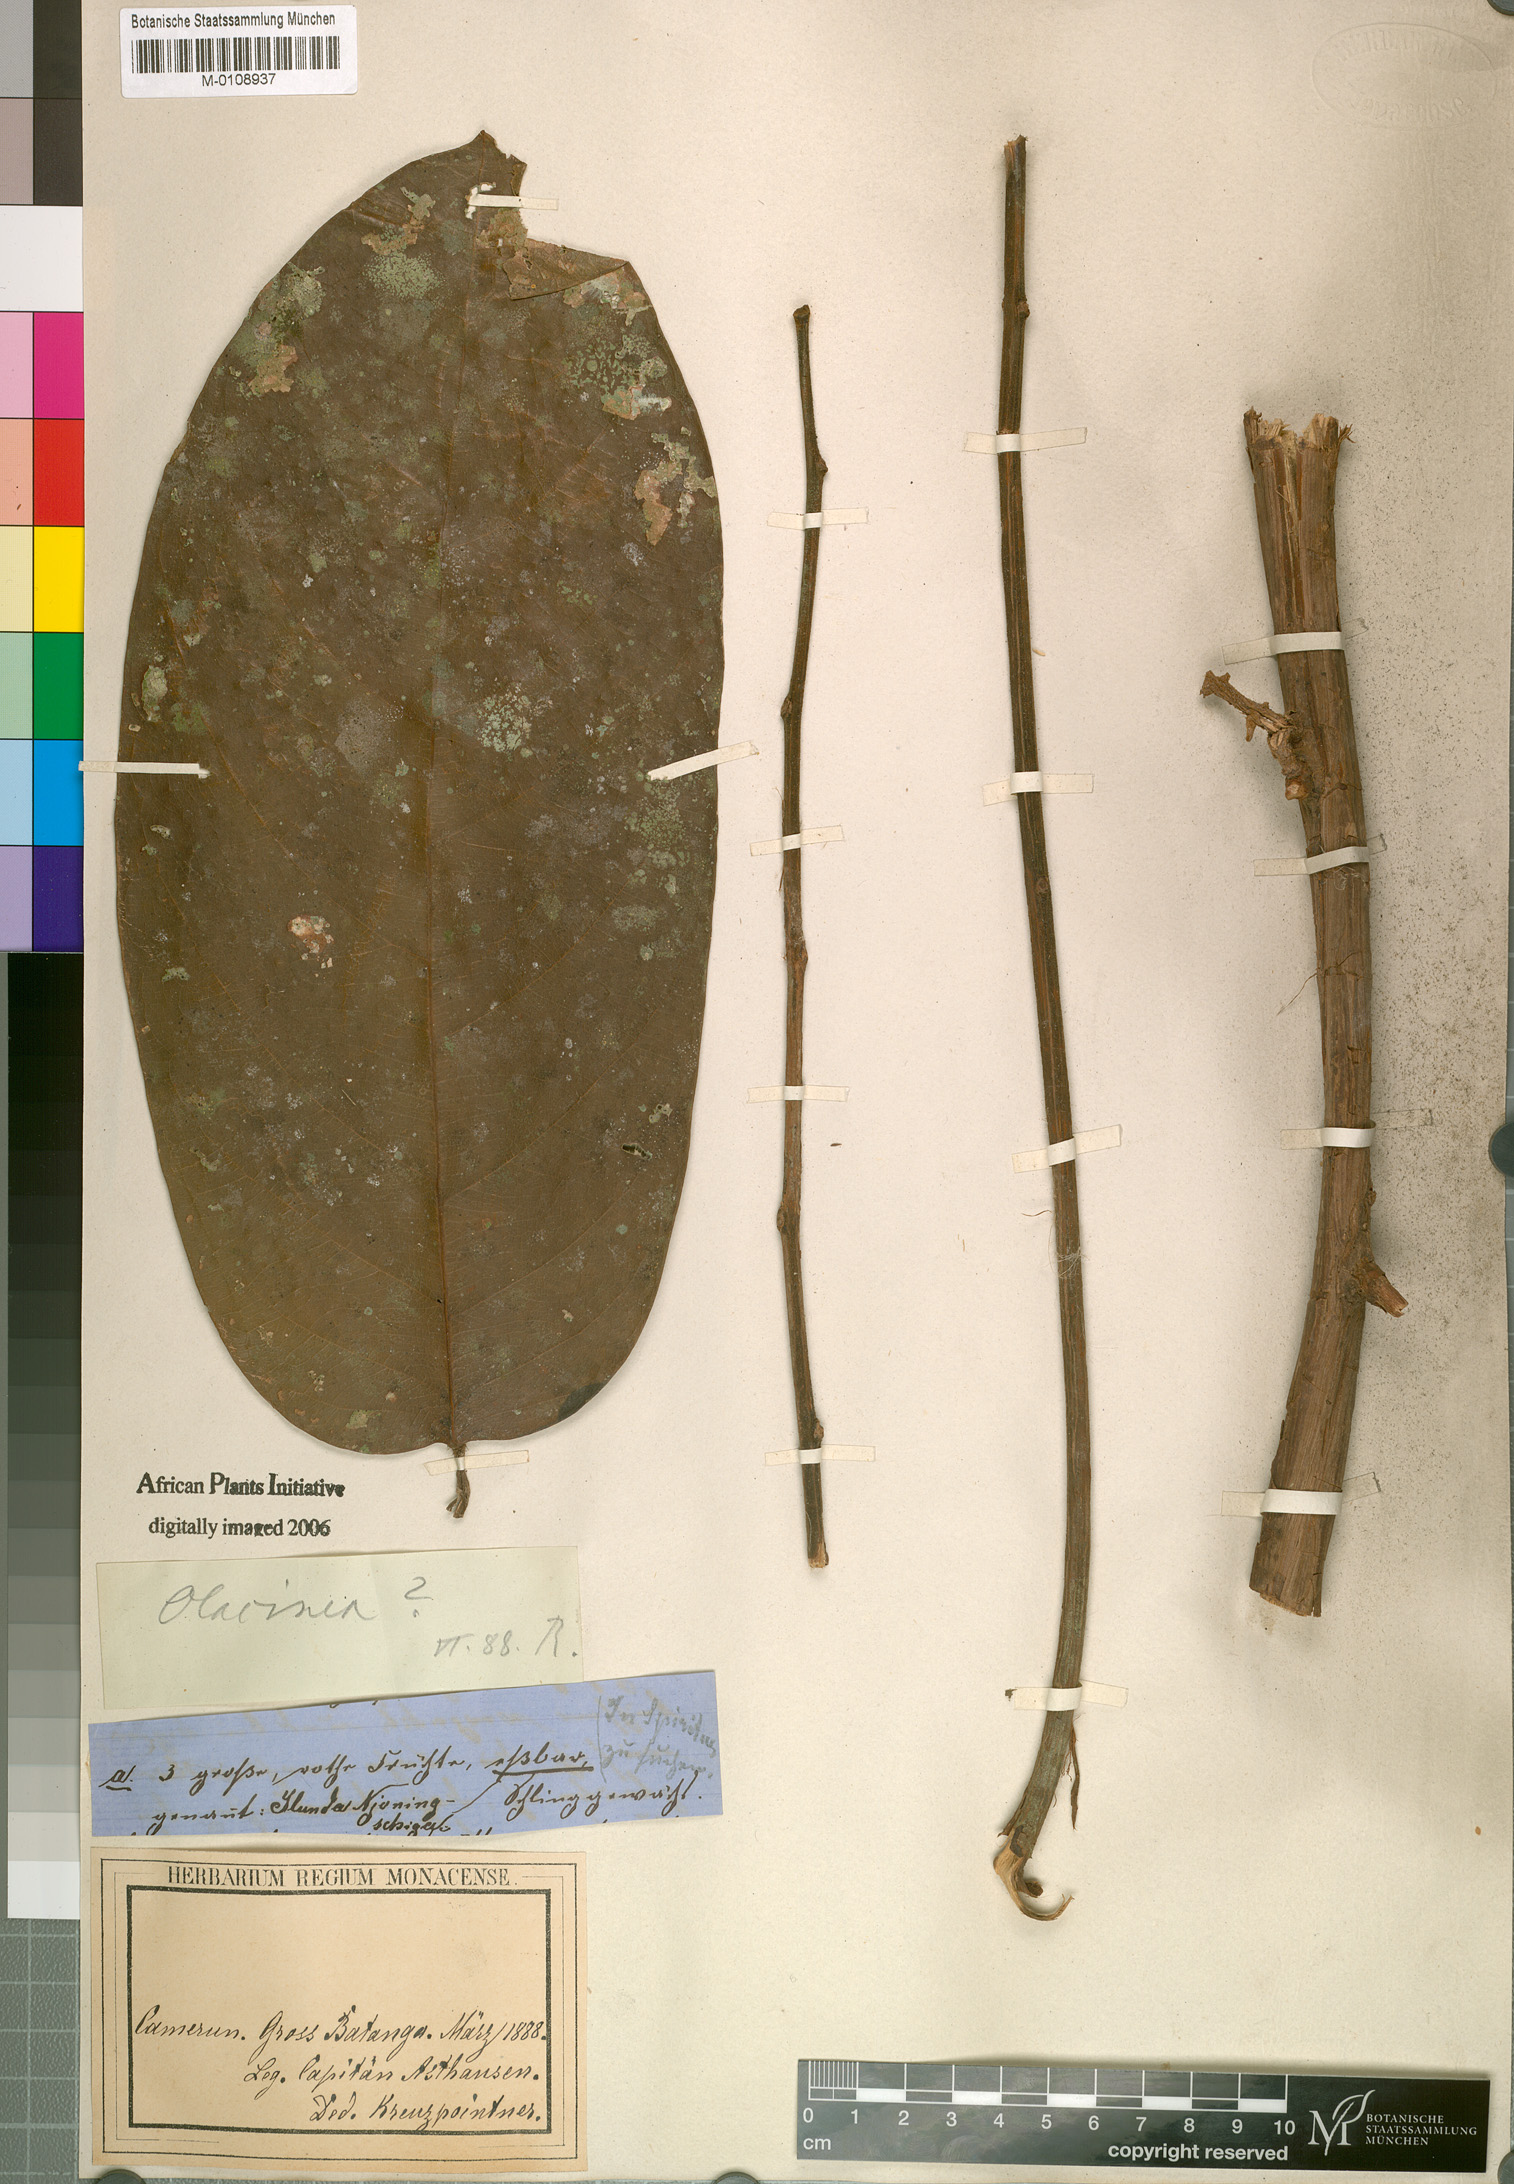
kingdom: Plantae
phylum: Tracheophyta
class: Magnoliopsida
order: Icacinales
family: Icacinaceae
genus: Pyrenacantha
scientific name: Pyrenacantha grandifolia
